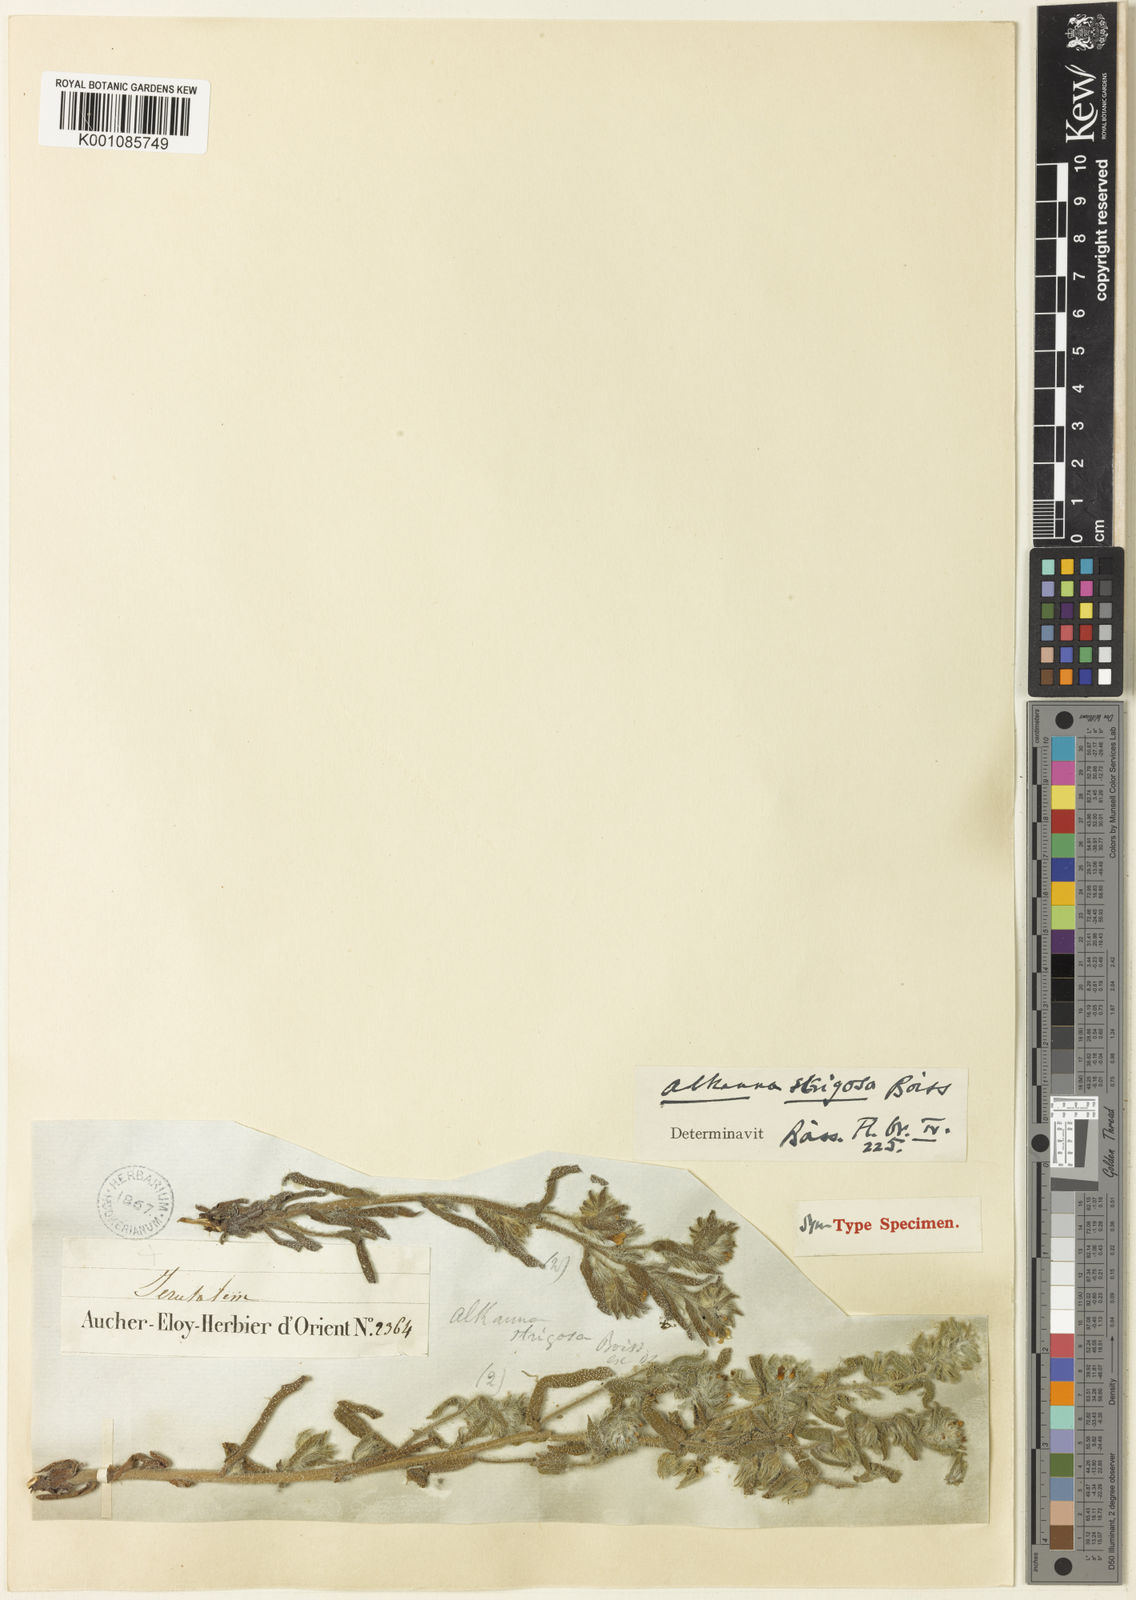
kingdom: Plantae
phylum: Tracheophyta
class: Magnoliopsida
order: Boraginales
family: Boraginaceae
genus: Alkanna
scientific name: Alkanna strigosa
